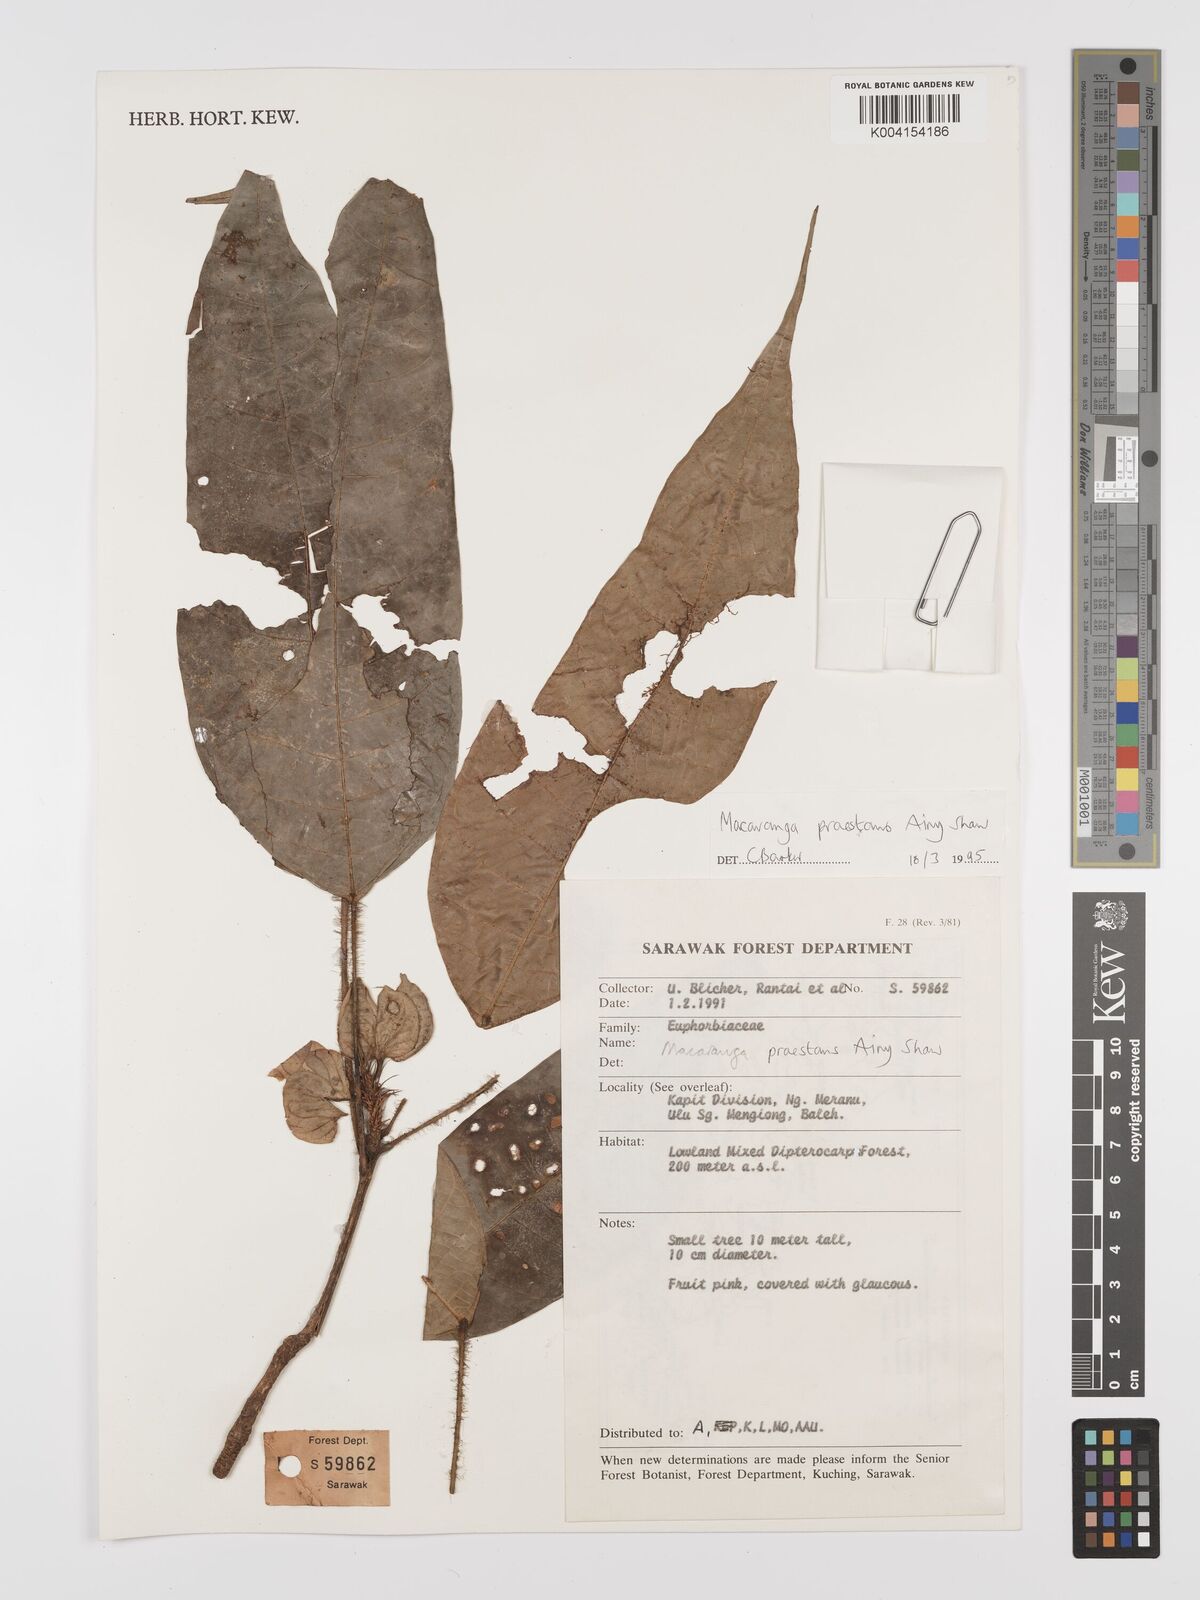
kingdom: Plantae
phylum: Tracheophyta
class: Magnoliopsida
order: Malpighiales
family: Euphorbiaceae
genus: Macaranga
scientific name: Macaranga praestans
